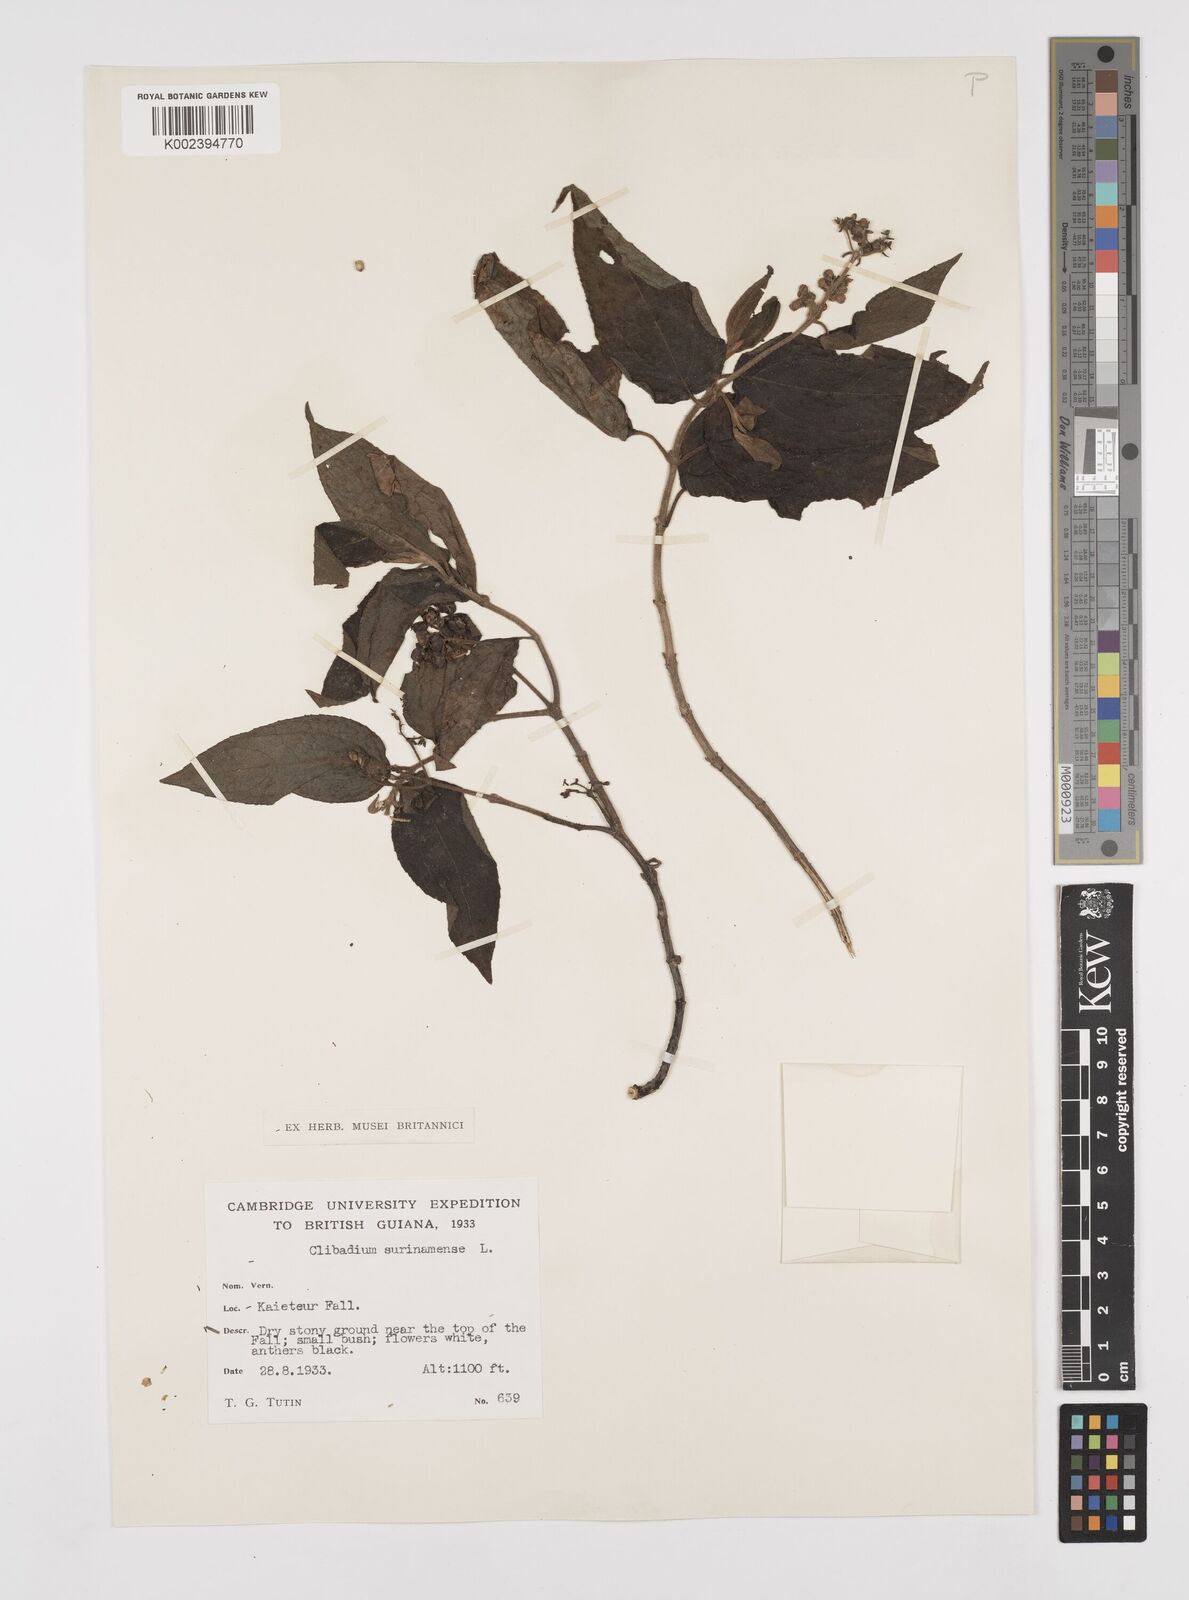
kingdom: Plantae
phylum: Tracheophyta
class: Magnoliopsida
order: Asterales
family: Asteraceae
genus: Clibadium
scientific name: Clibadium surinamense
